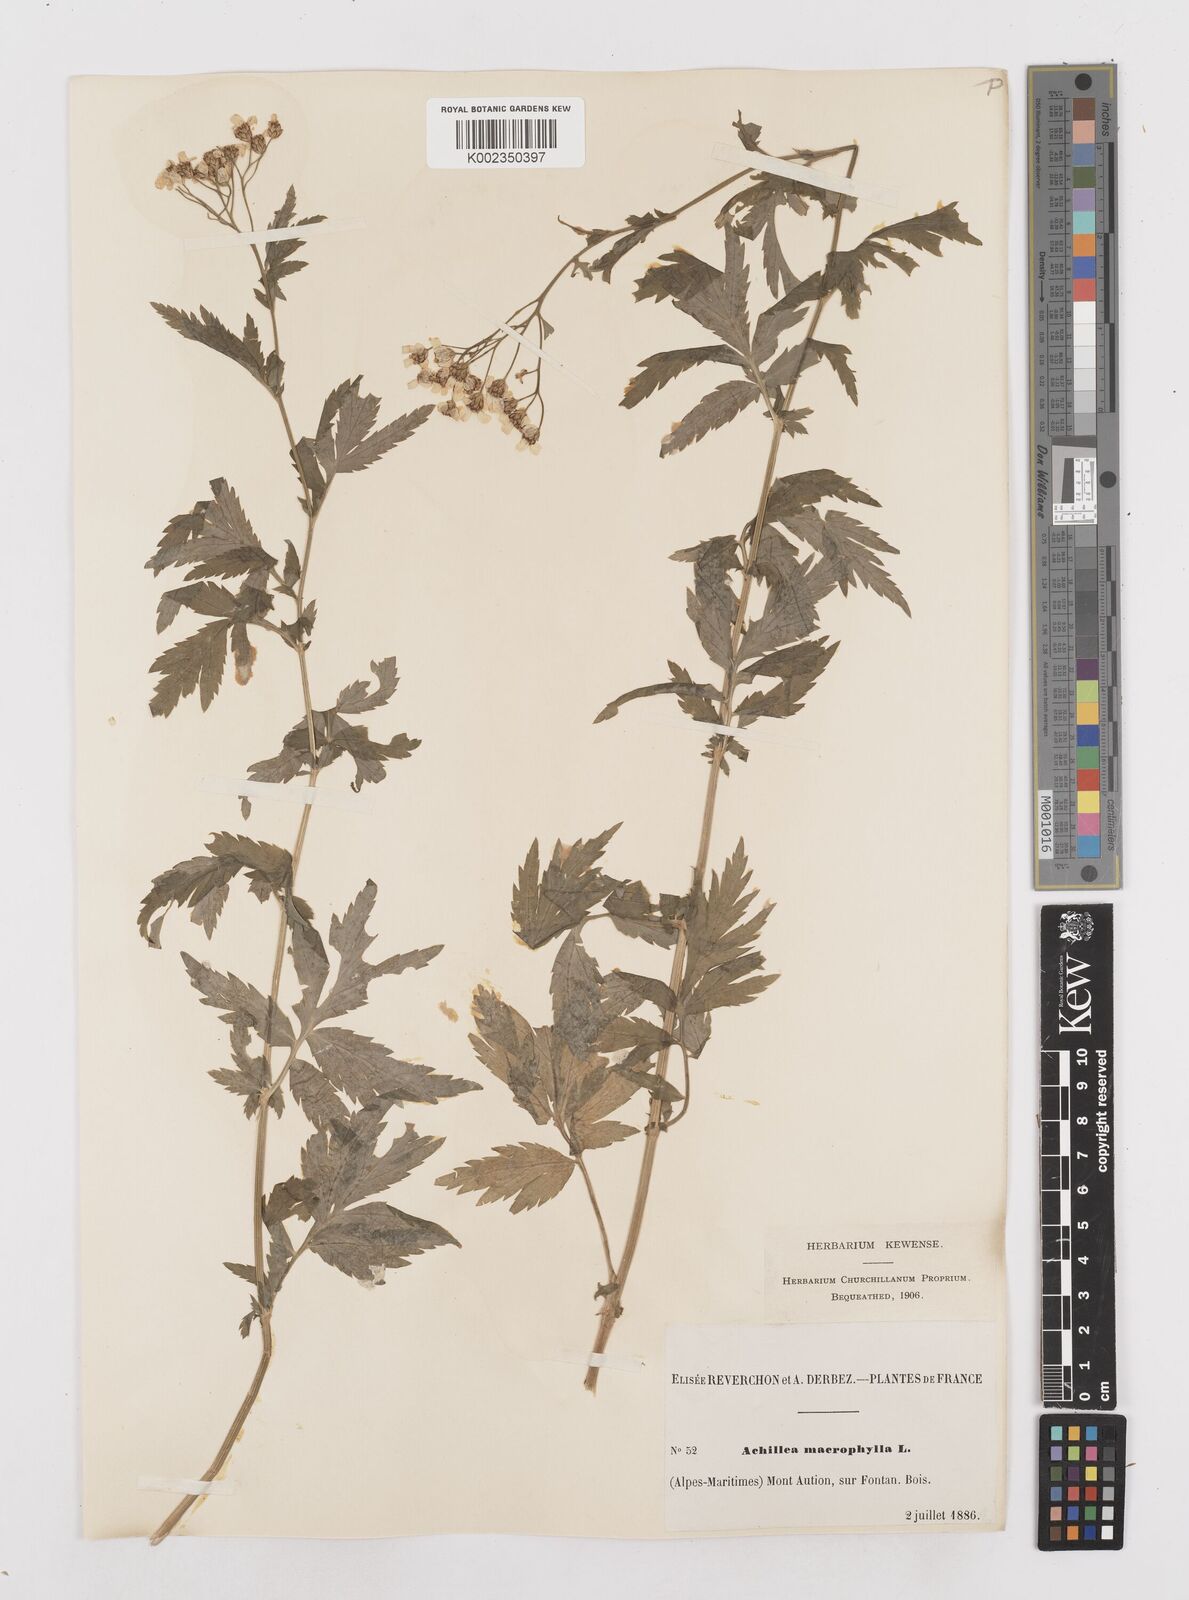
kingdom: Plantae
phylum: Tracheophyta
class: Magnoliopsida
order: Asterales
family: Asteraceae
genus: Achillea
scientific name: Achillea macrophylla
